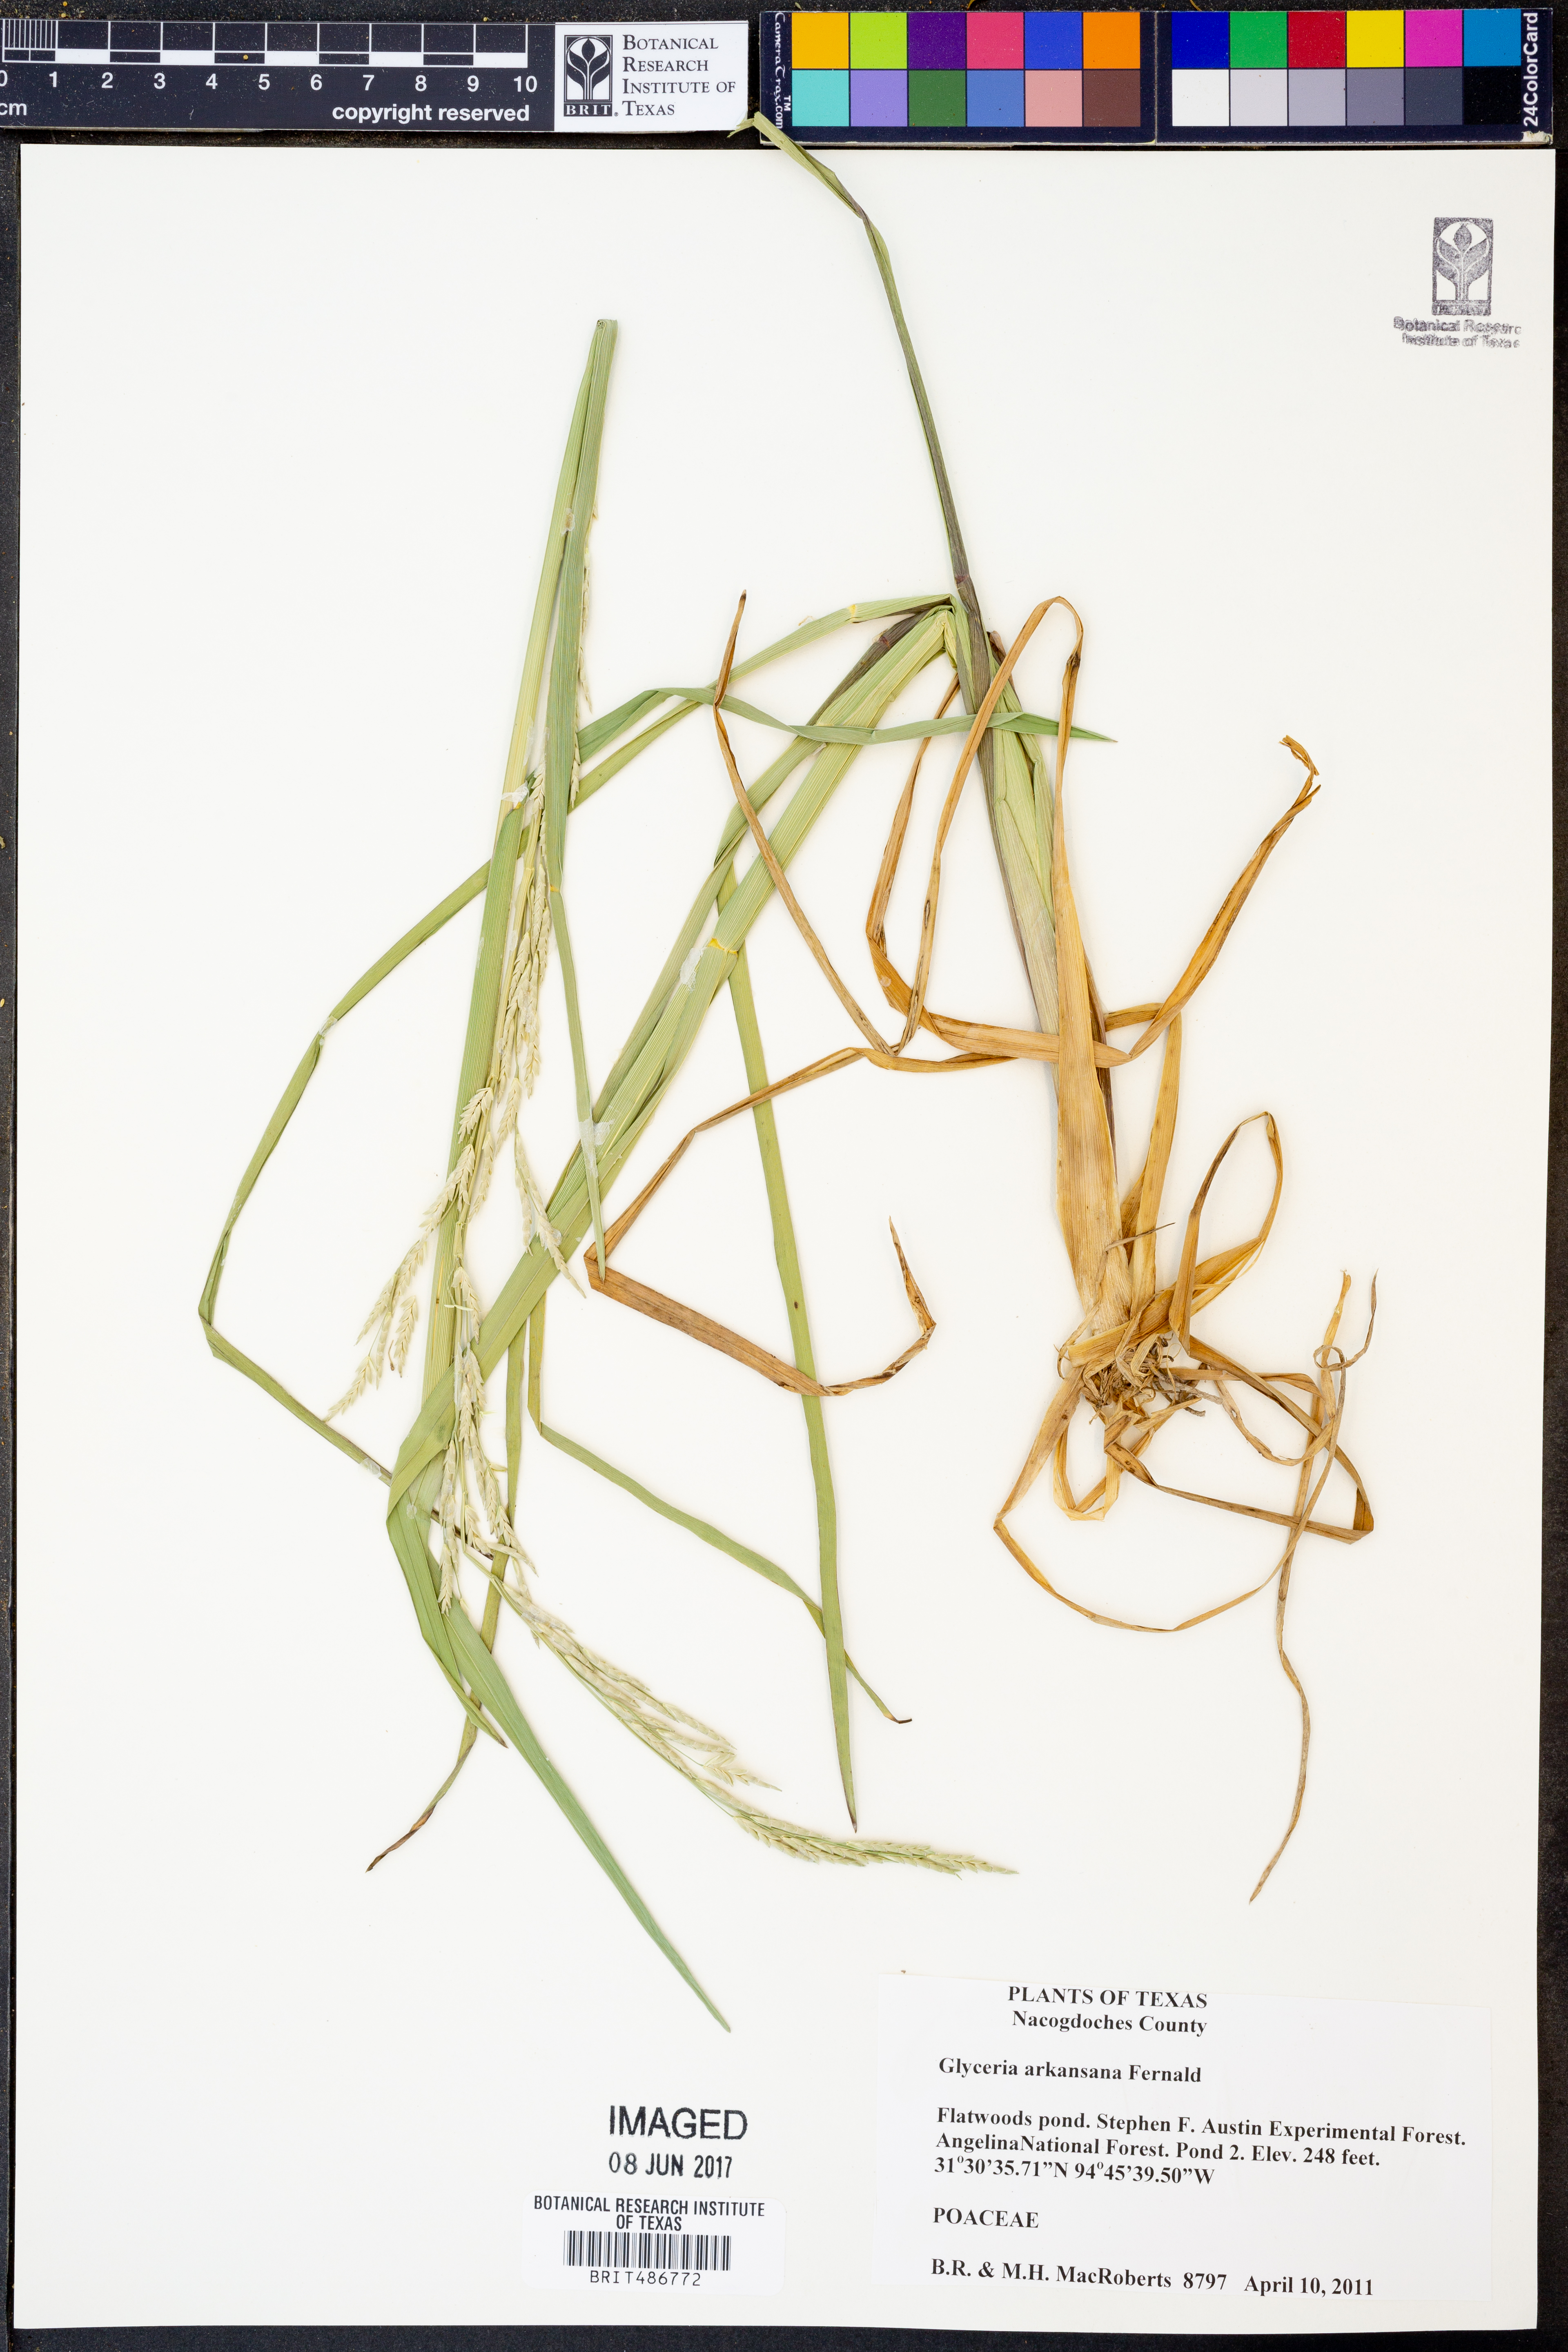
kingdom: Plantae
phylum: Tracheophyta
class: Liliopsida
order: Poales
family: Poaceae
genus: Glyceria
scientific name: Glyceria arkansana
